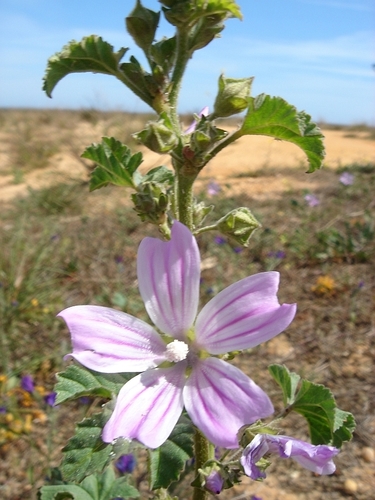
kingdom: Plantae
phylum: Tracheophyta
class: Magnoliopsida
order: Malvales
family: Malvaceae
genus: Malva
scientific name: Malva multiflora
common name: Cheeseweed
